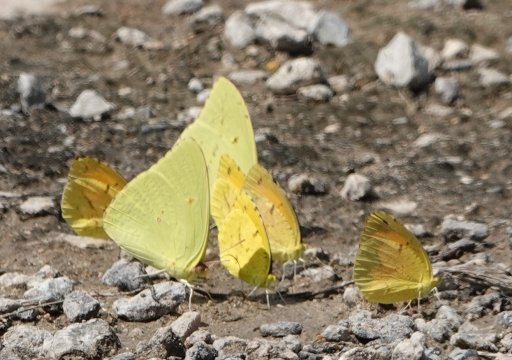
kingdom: Animalia
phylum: Arthropoda
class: Insecta
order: Lepidoptera
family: Pieridae
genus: Phoebis
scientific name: Phoebis sennae
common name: Cloudless Sulphur
